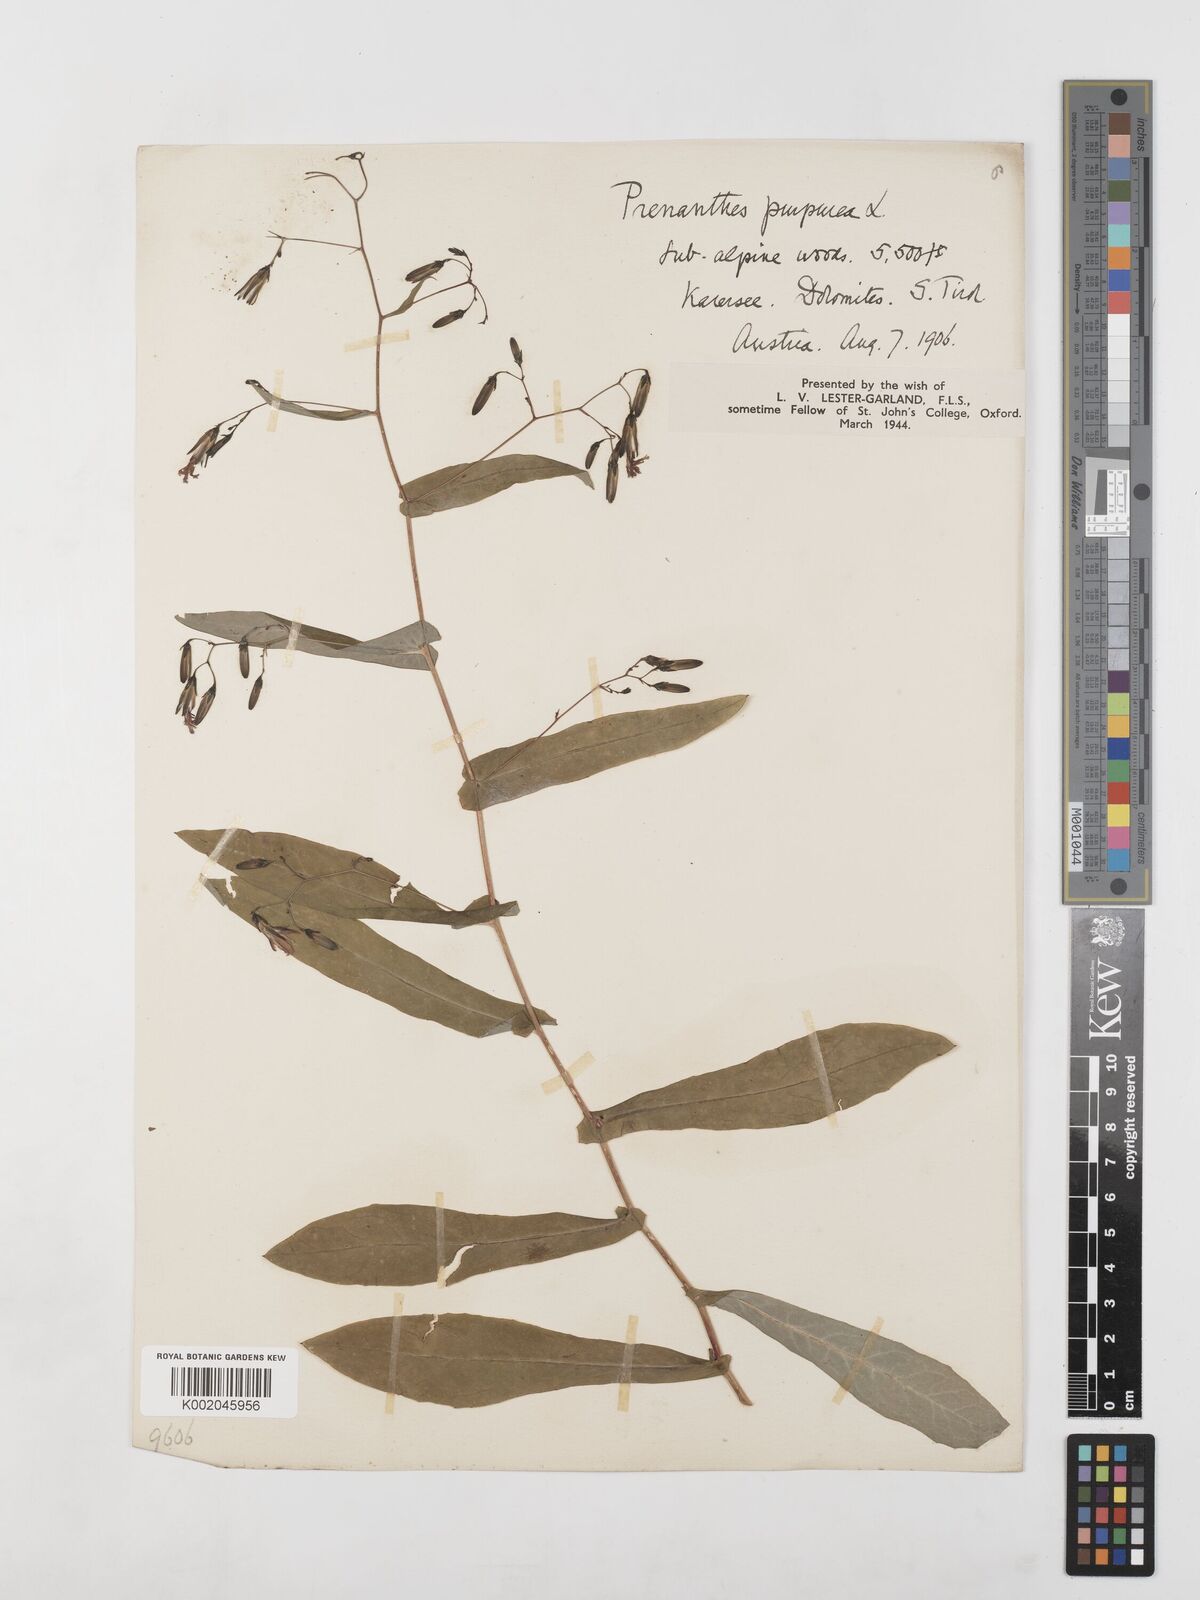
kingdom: Plantae
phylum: Tracheophyta
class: Magnoliopsida
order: Asterales
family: Asteraceae
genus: Prenanthes
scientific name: Prenanthes purpurea
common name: Purple lettuce
